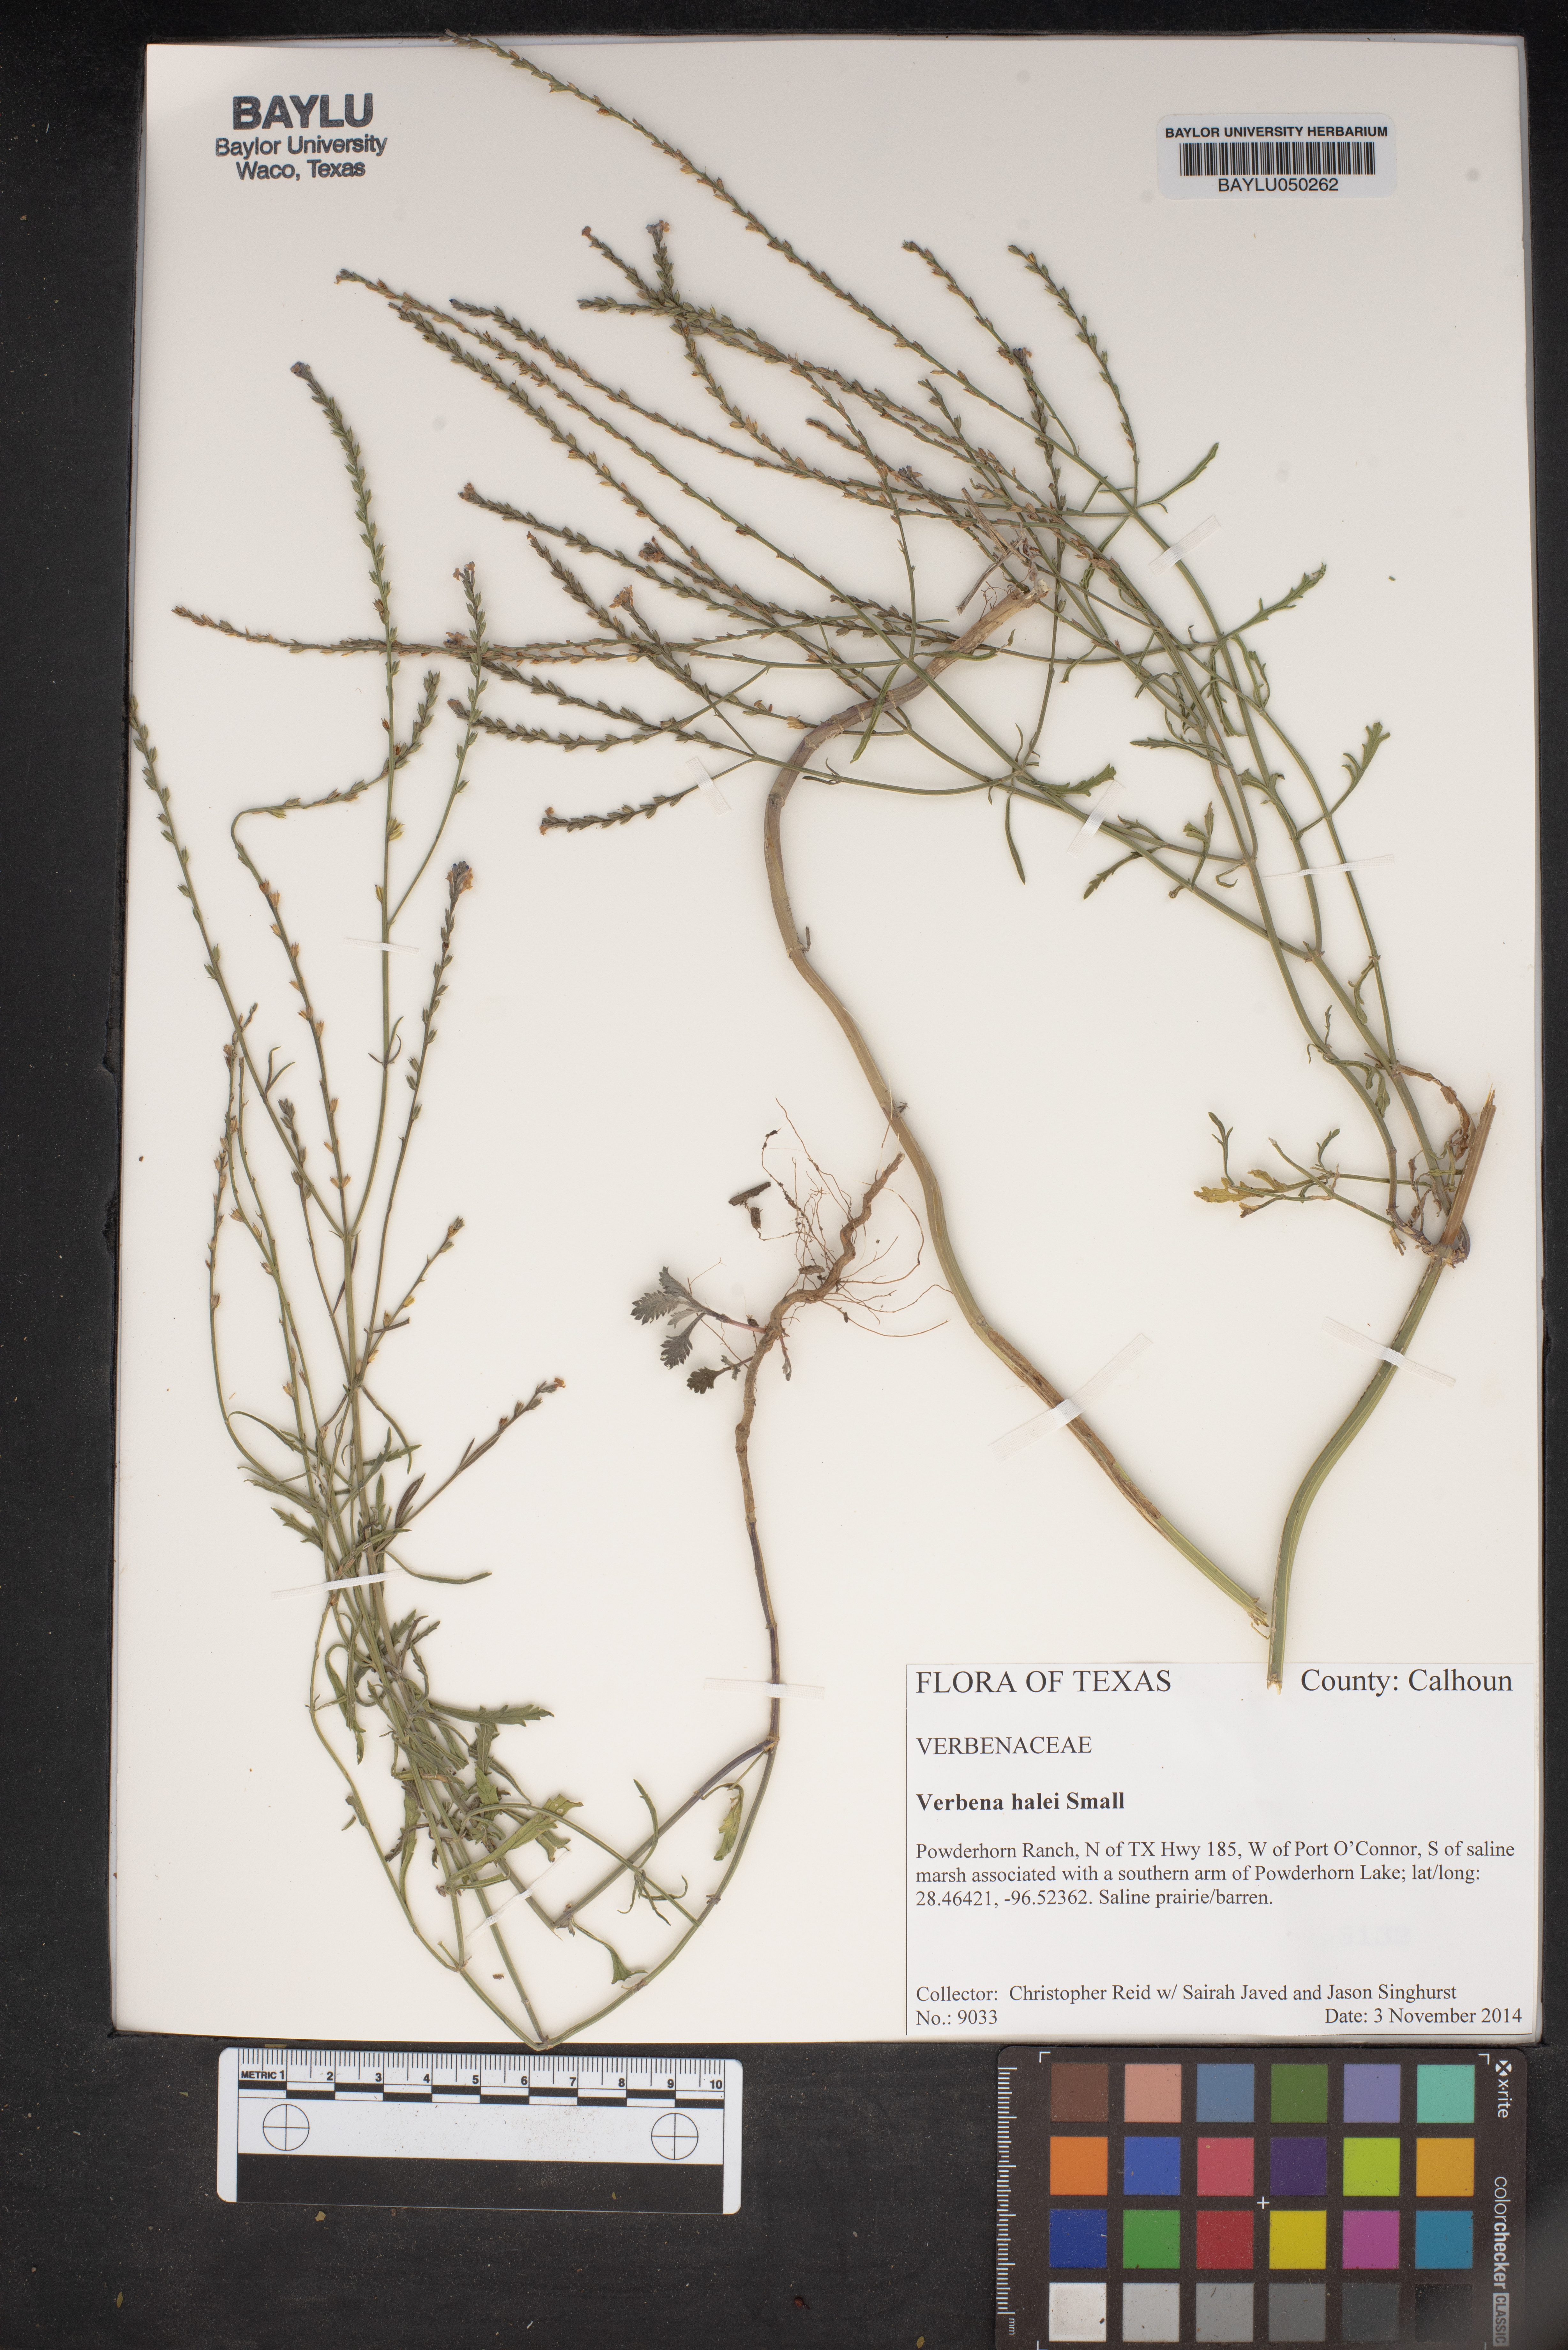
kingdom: Plantae
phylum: Tracheophyta
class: Magnoliopsida
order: Lamiales
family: Verbenaceae
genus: Verbena
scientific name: Verbena halei
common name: Texas vervain
